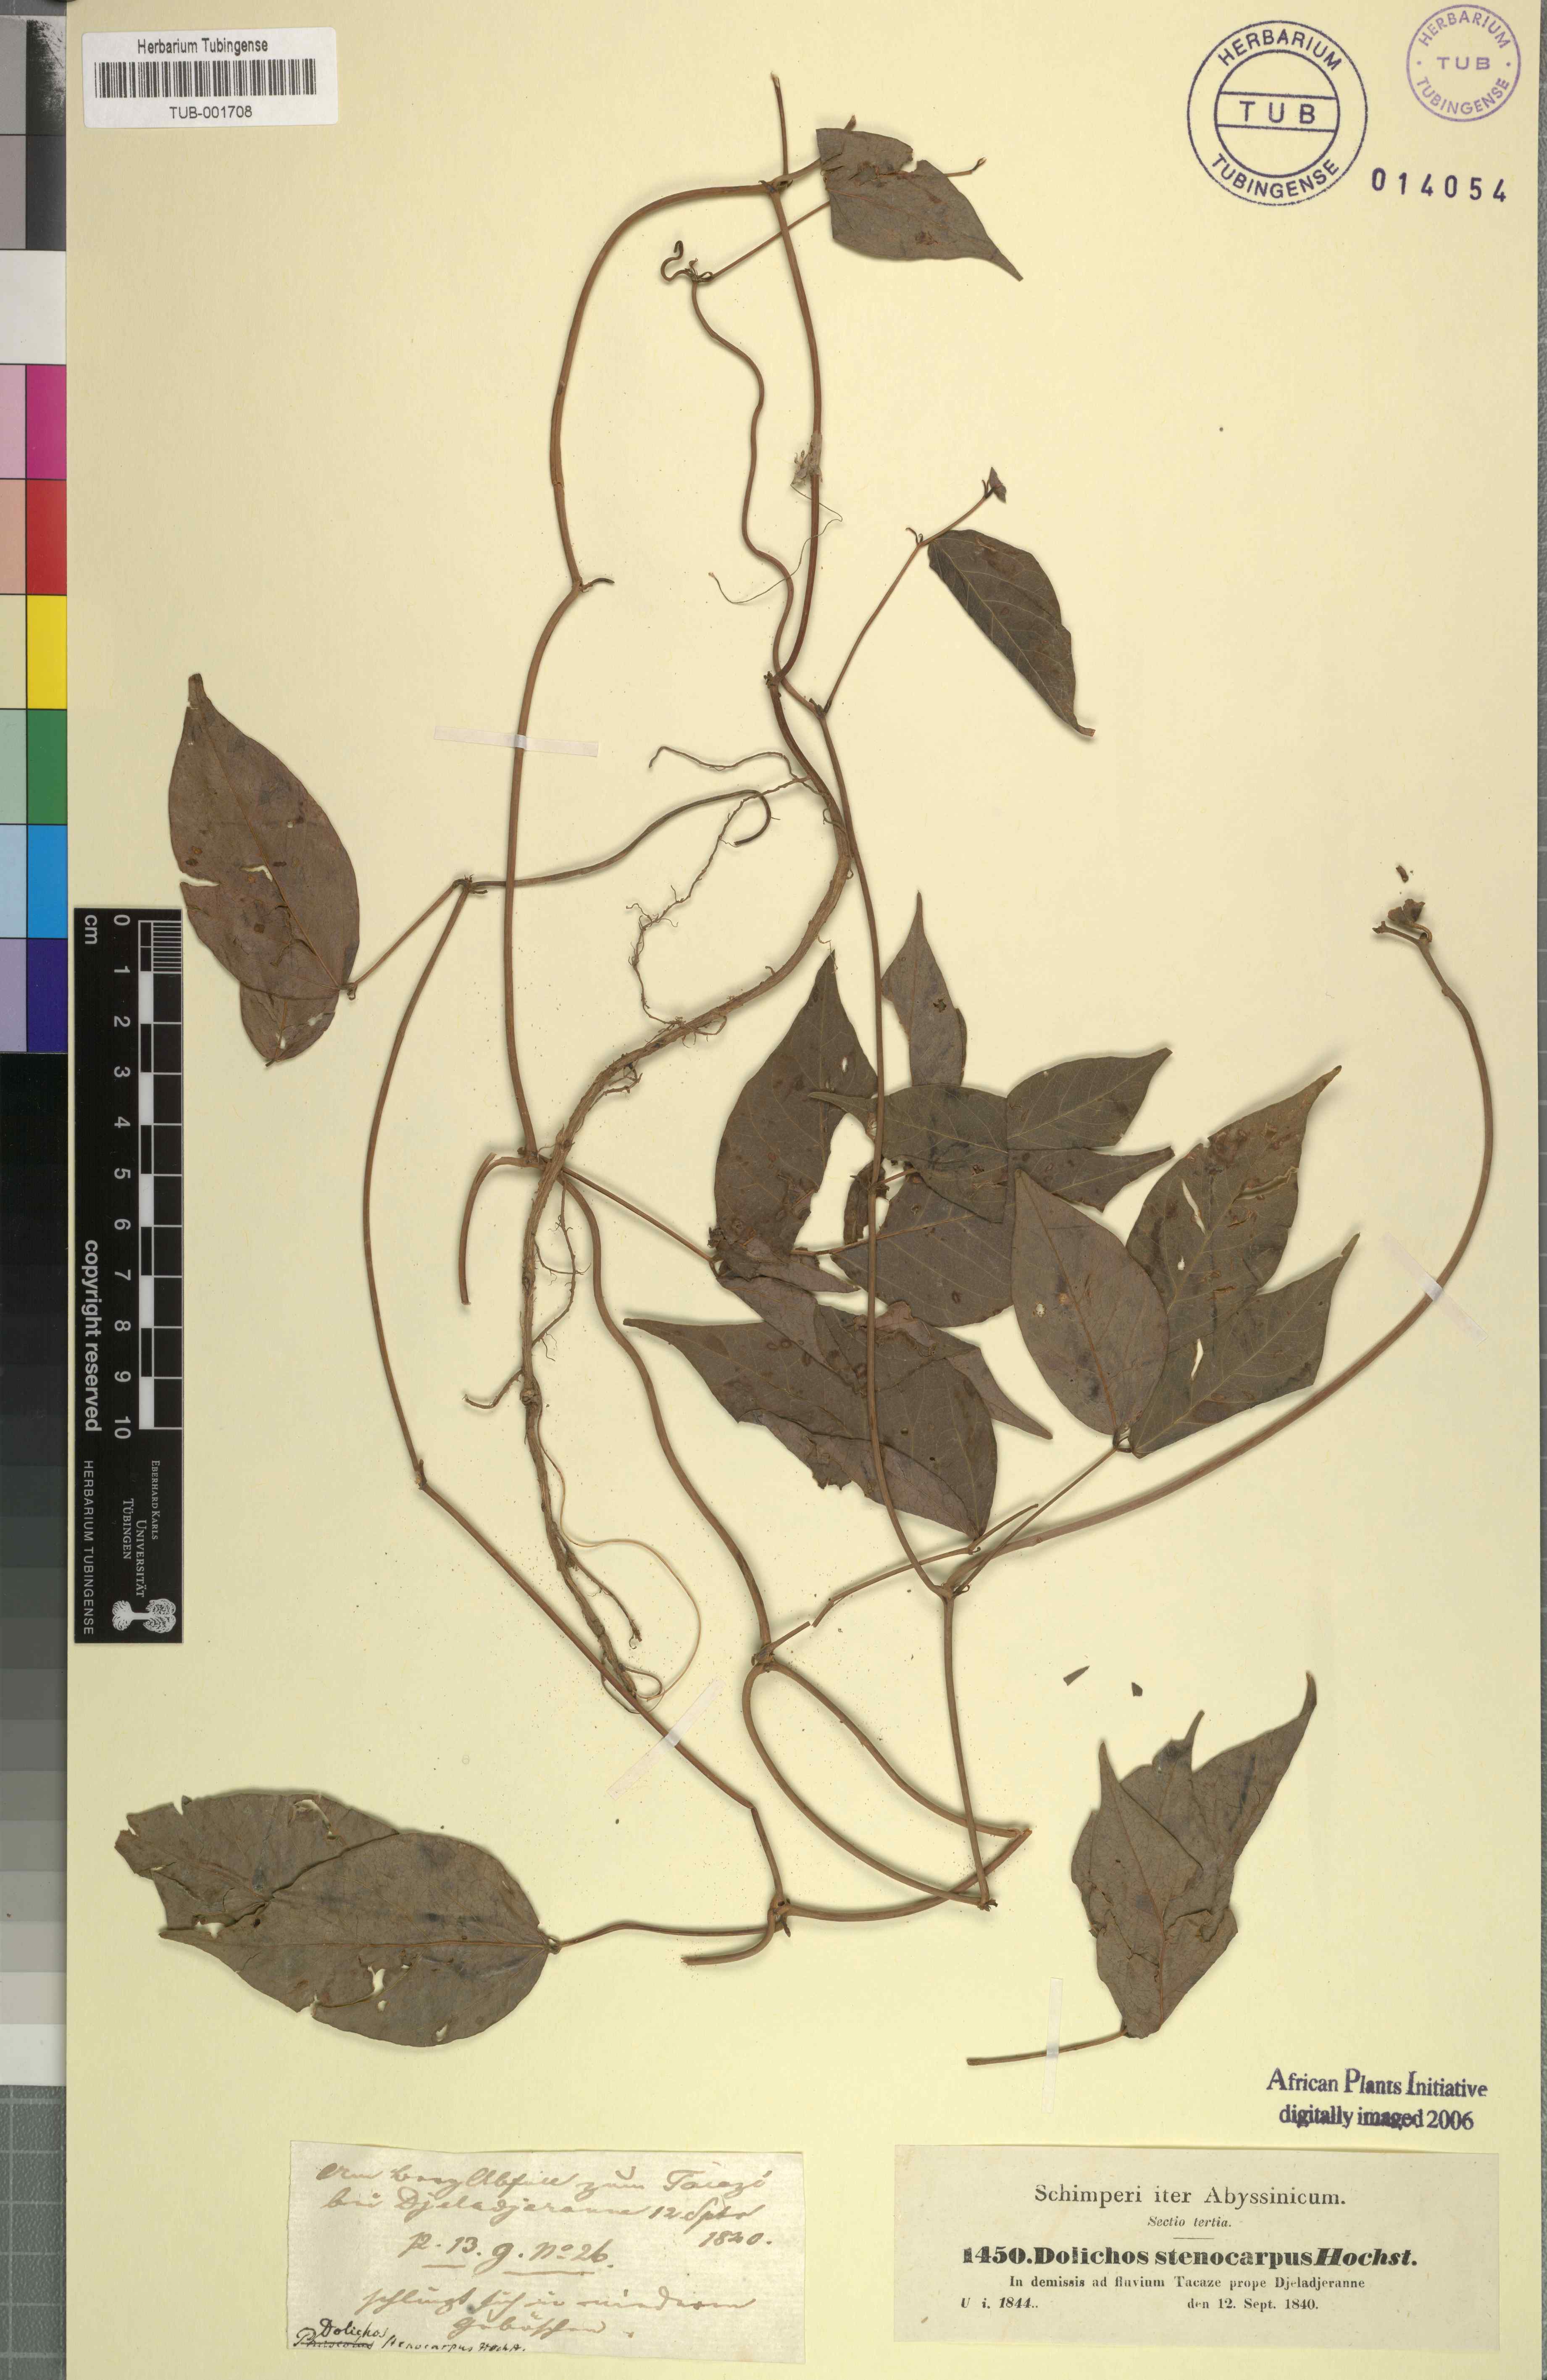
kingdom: Plantae
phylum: Tracheophyta
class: Magnoliopsida
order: Fabales
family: Fabaceae
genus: Sphenostylis
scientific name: Sphenostylis stenocarpa
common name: Yam-pea
